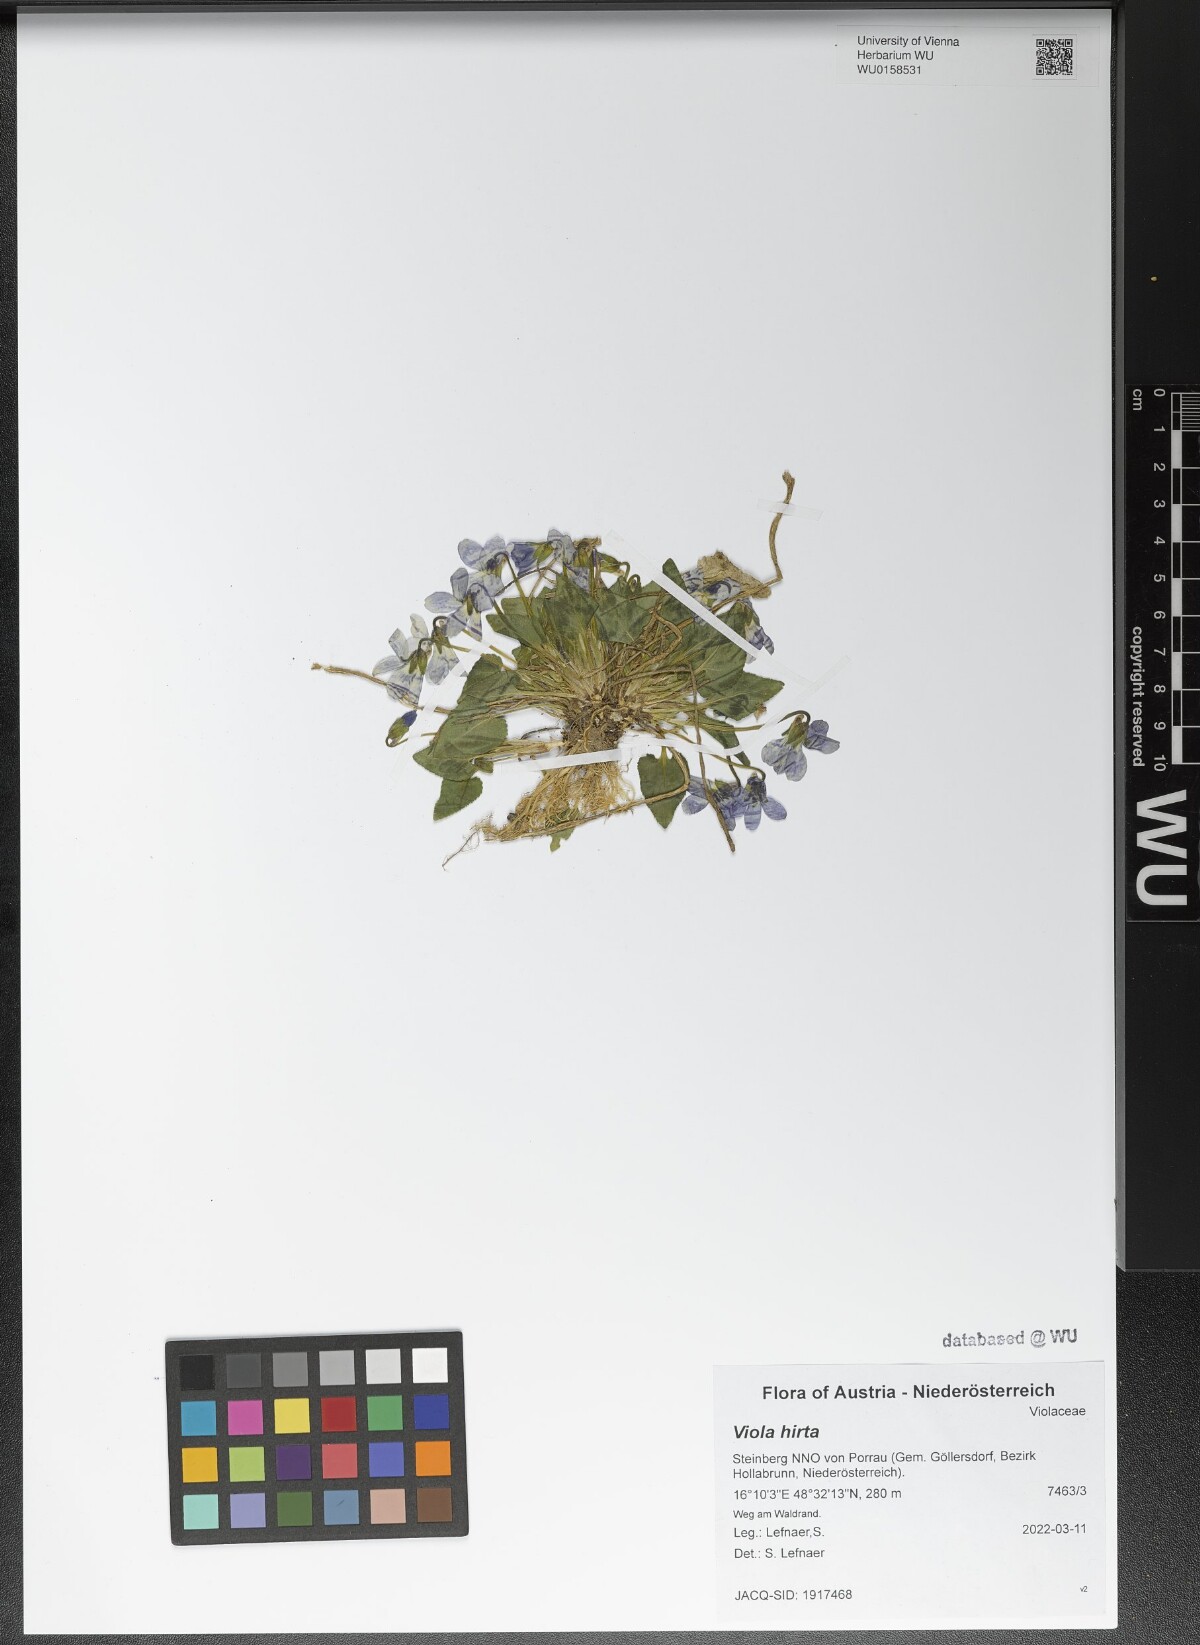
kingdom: Plantae
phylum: Tracheophyta
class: Magnoliopsida
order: Malpighiales
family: Violaceae
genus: Viola
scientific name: Viola hirta
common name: Hairy violet
